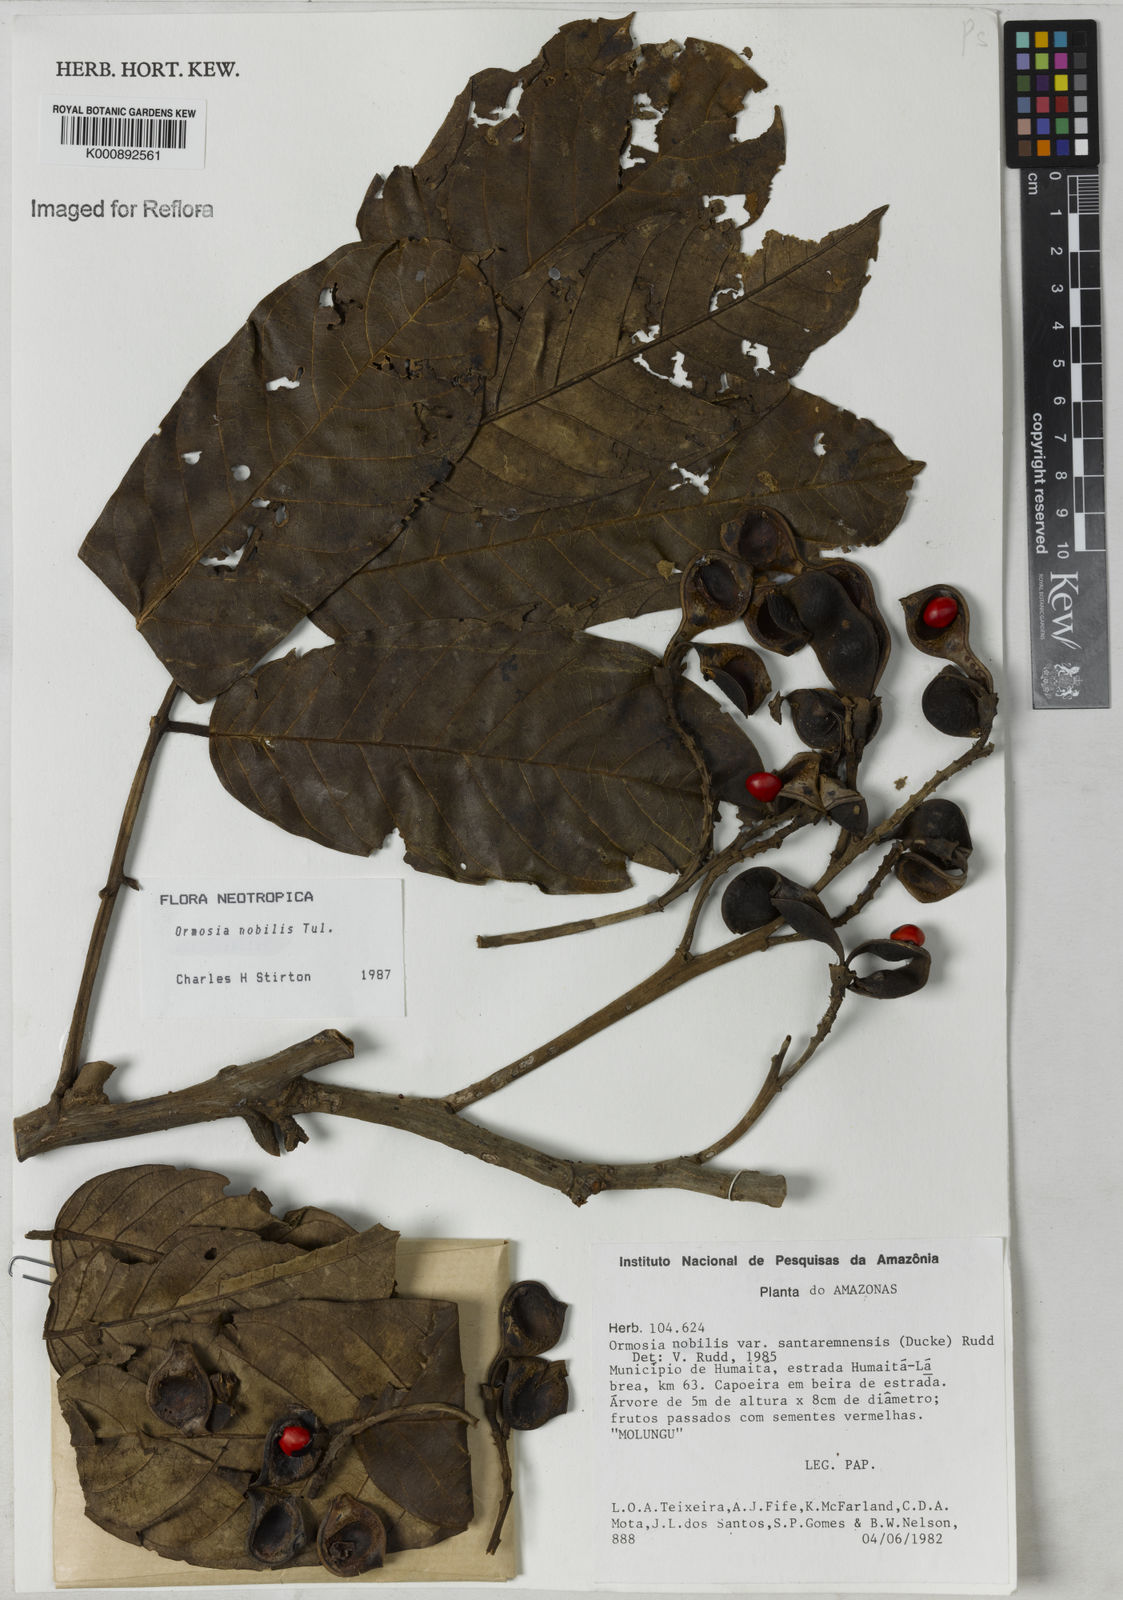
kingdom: Plantae
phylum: Tracheophyta
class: Magnoliopsida
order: Fabales
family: Fabaceae
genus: Ormosia
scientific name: Ormosia nobilis
